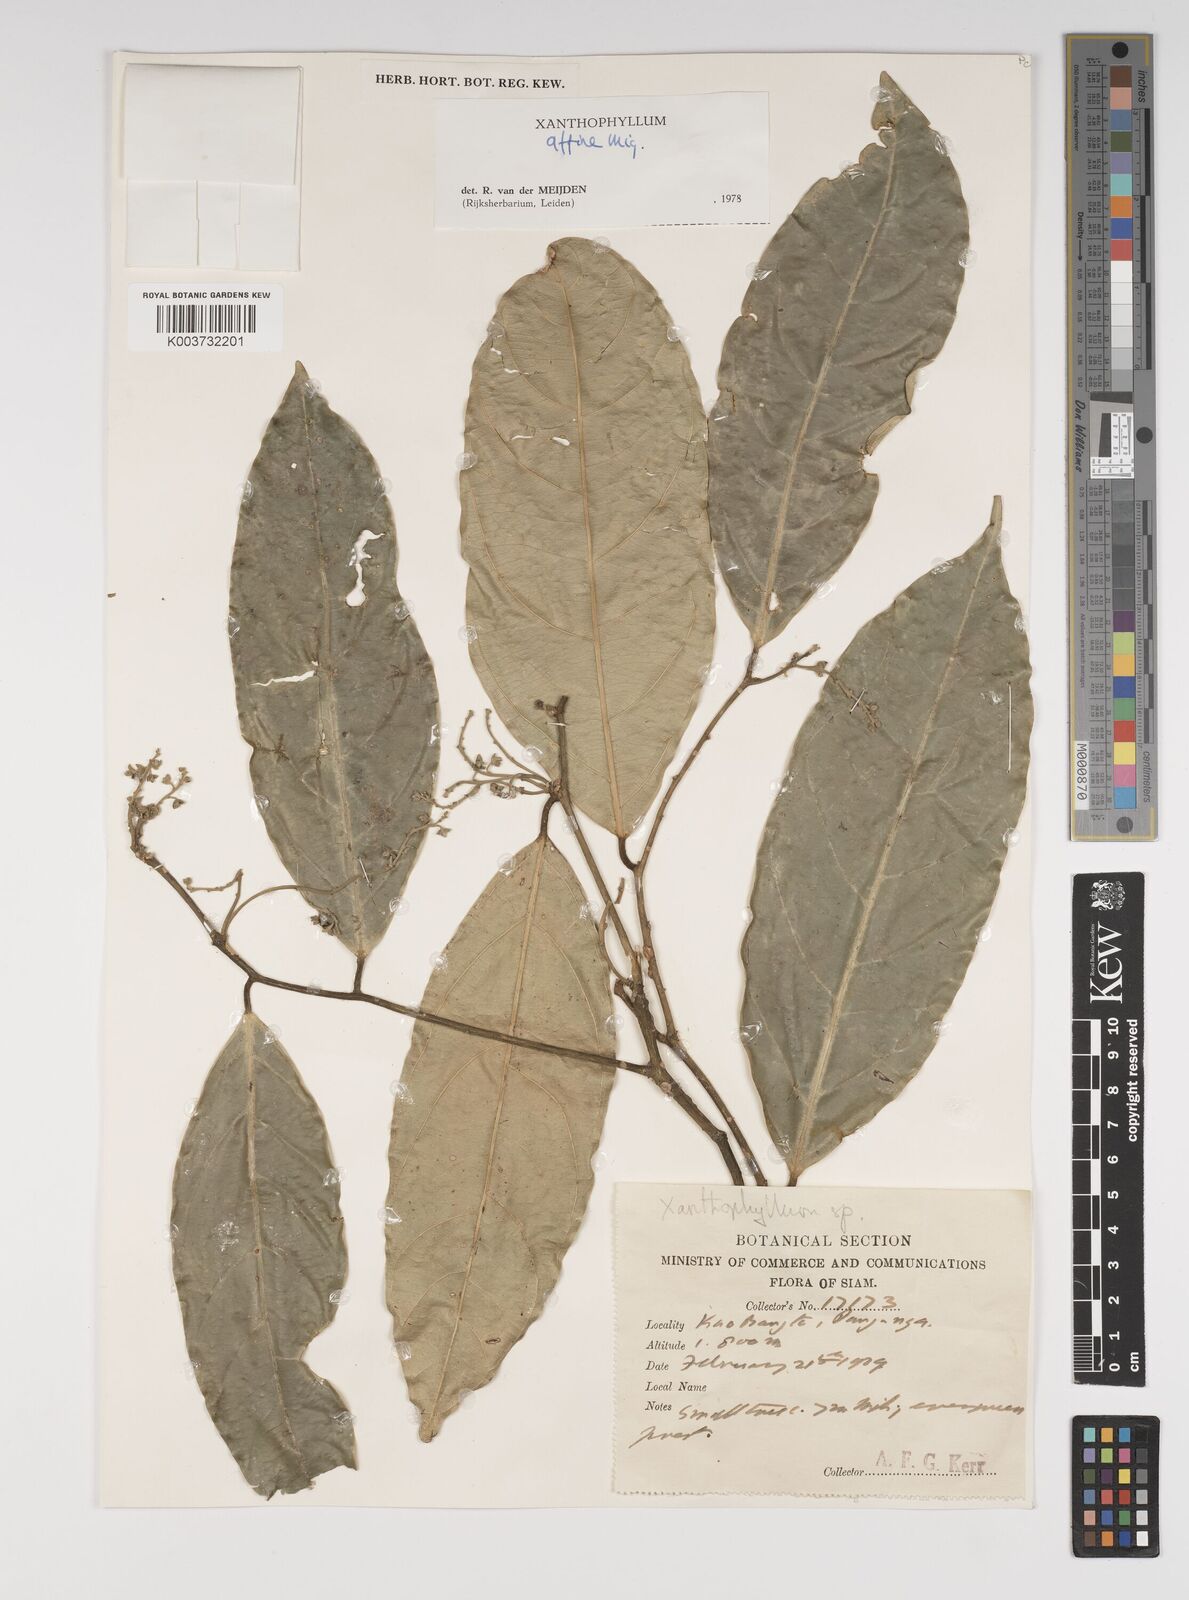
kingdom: Plantae
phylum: Tracheophyta
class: Magnoliopsida
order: Fabales
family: Polygalaceae
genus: Xanthophyllum
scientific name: Xanthophyllum flavescens
